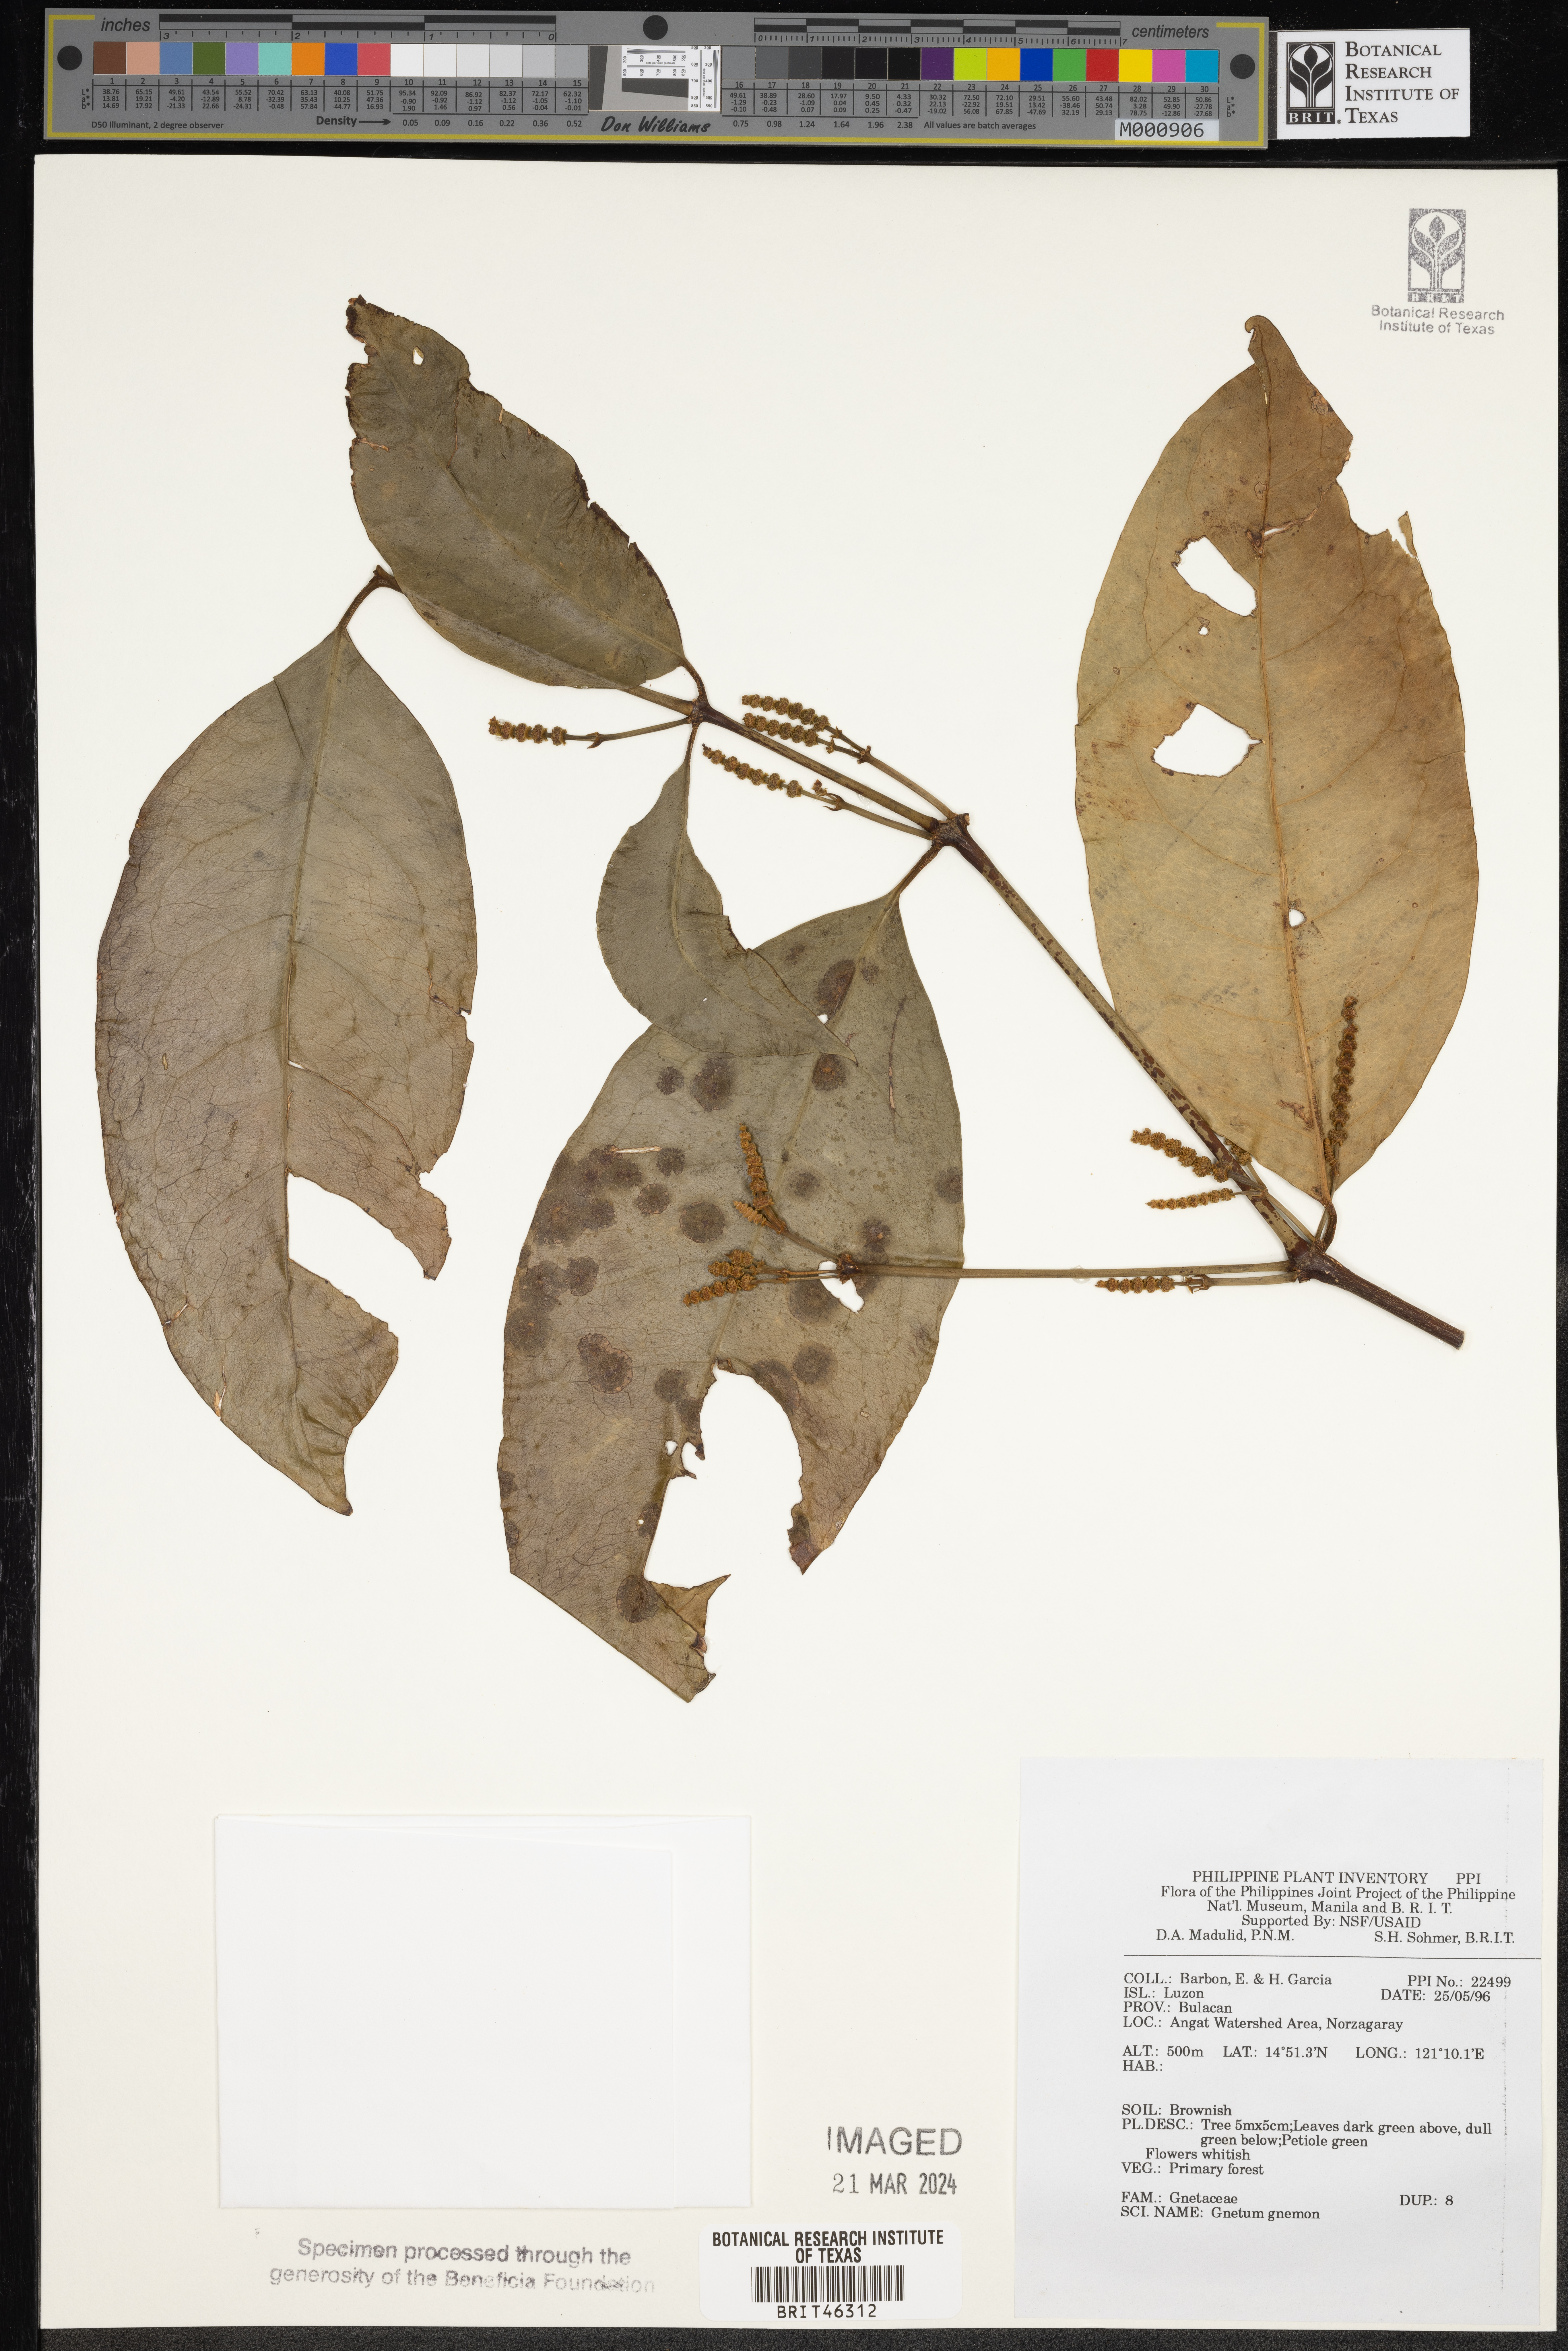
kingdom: Plantae
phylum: Tracheophyta
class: Gnetopsida
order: Gnetales
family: Gnetaceae
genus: Gnetum
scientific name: Gnetum gnemon
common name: Spanish joint-fir
